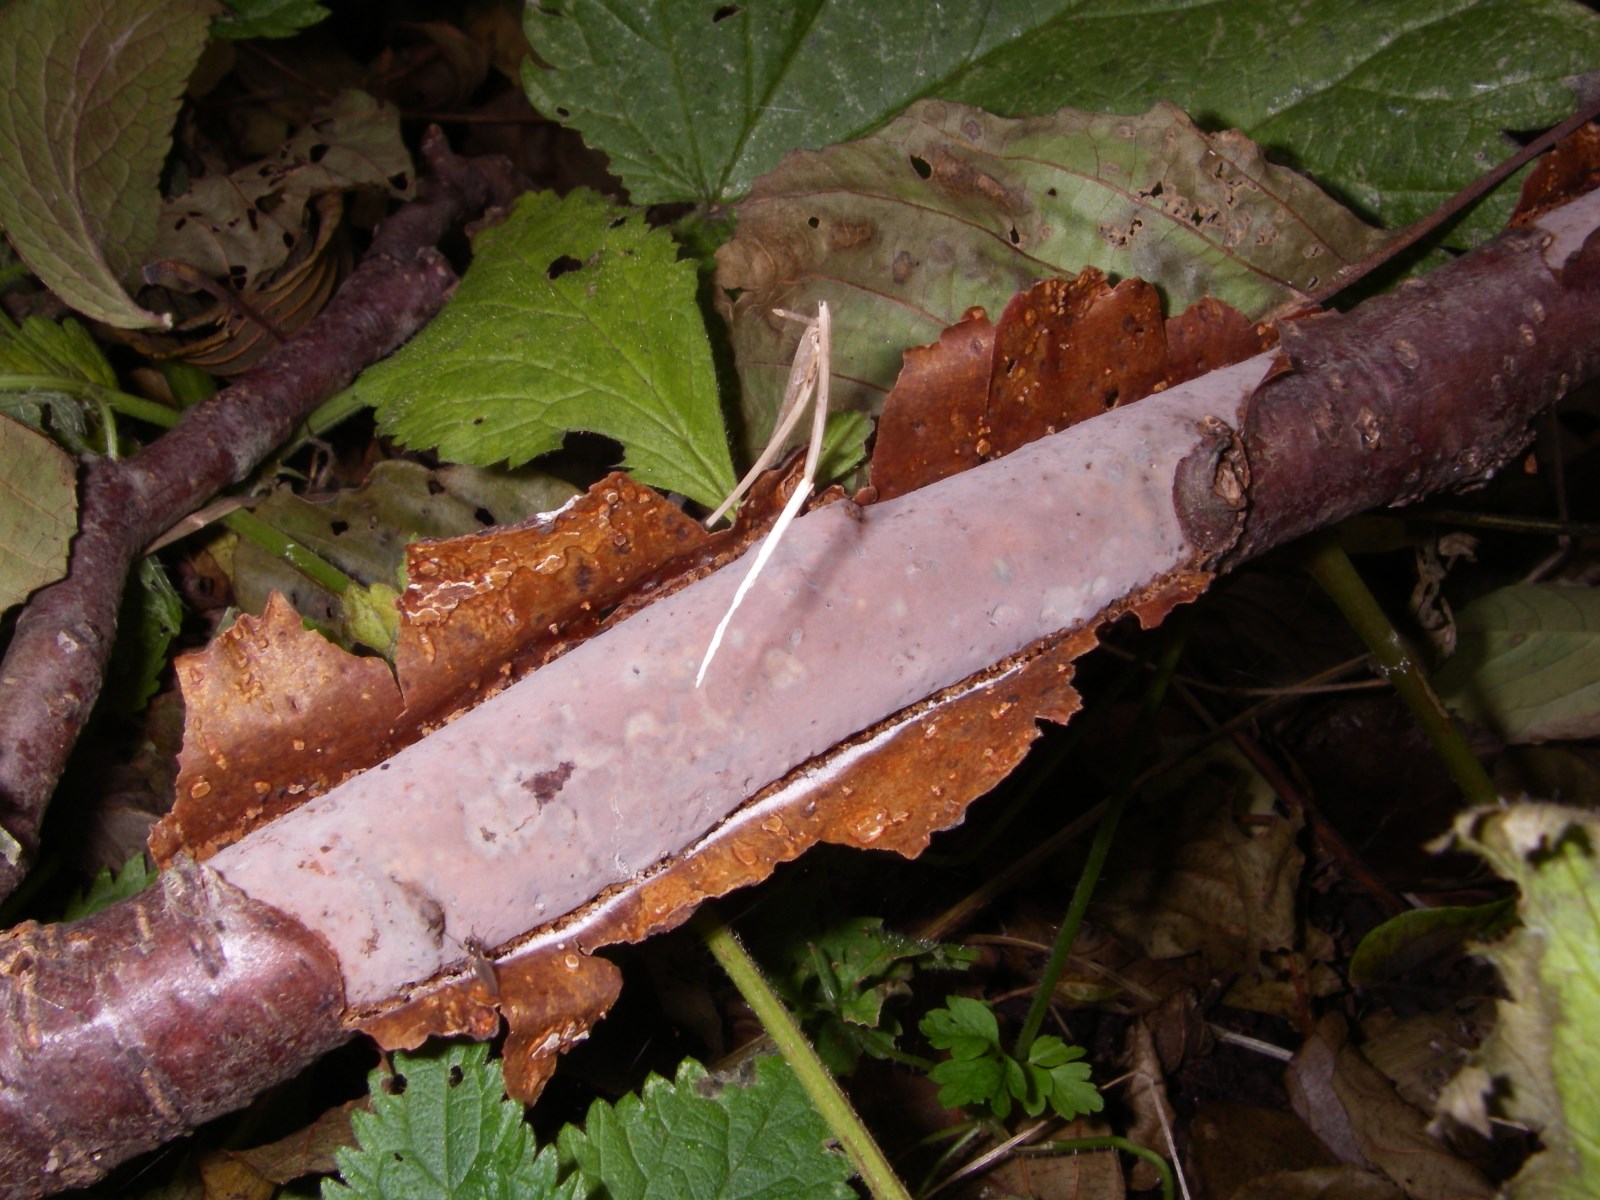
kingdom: Fungi
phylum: Basidiomycota
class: Agaricomycetes
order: Corticiales
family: Vuilleminiaceae
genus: Vuilleminia
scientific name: Vuilleminia
